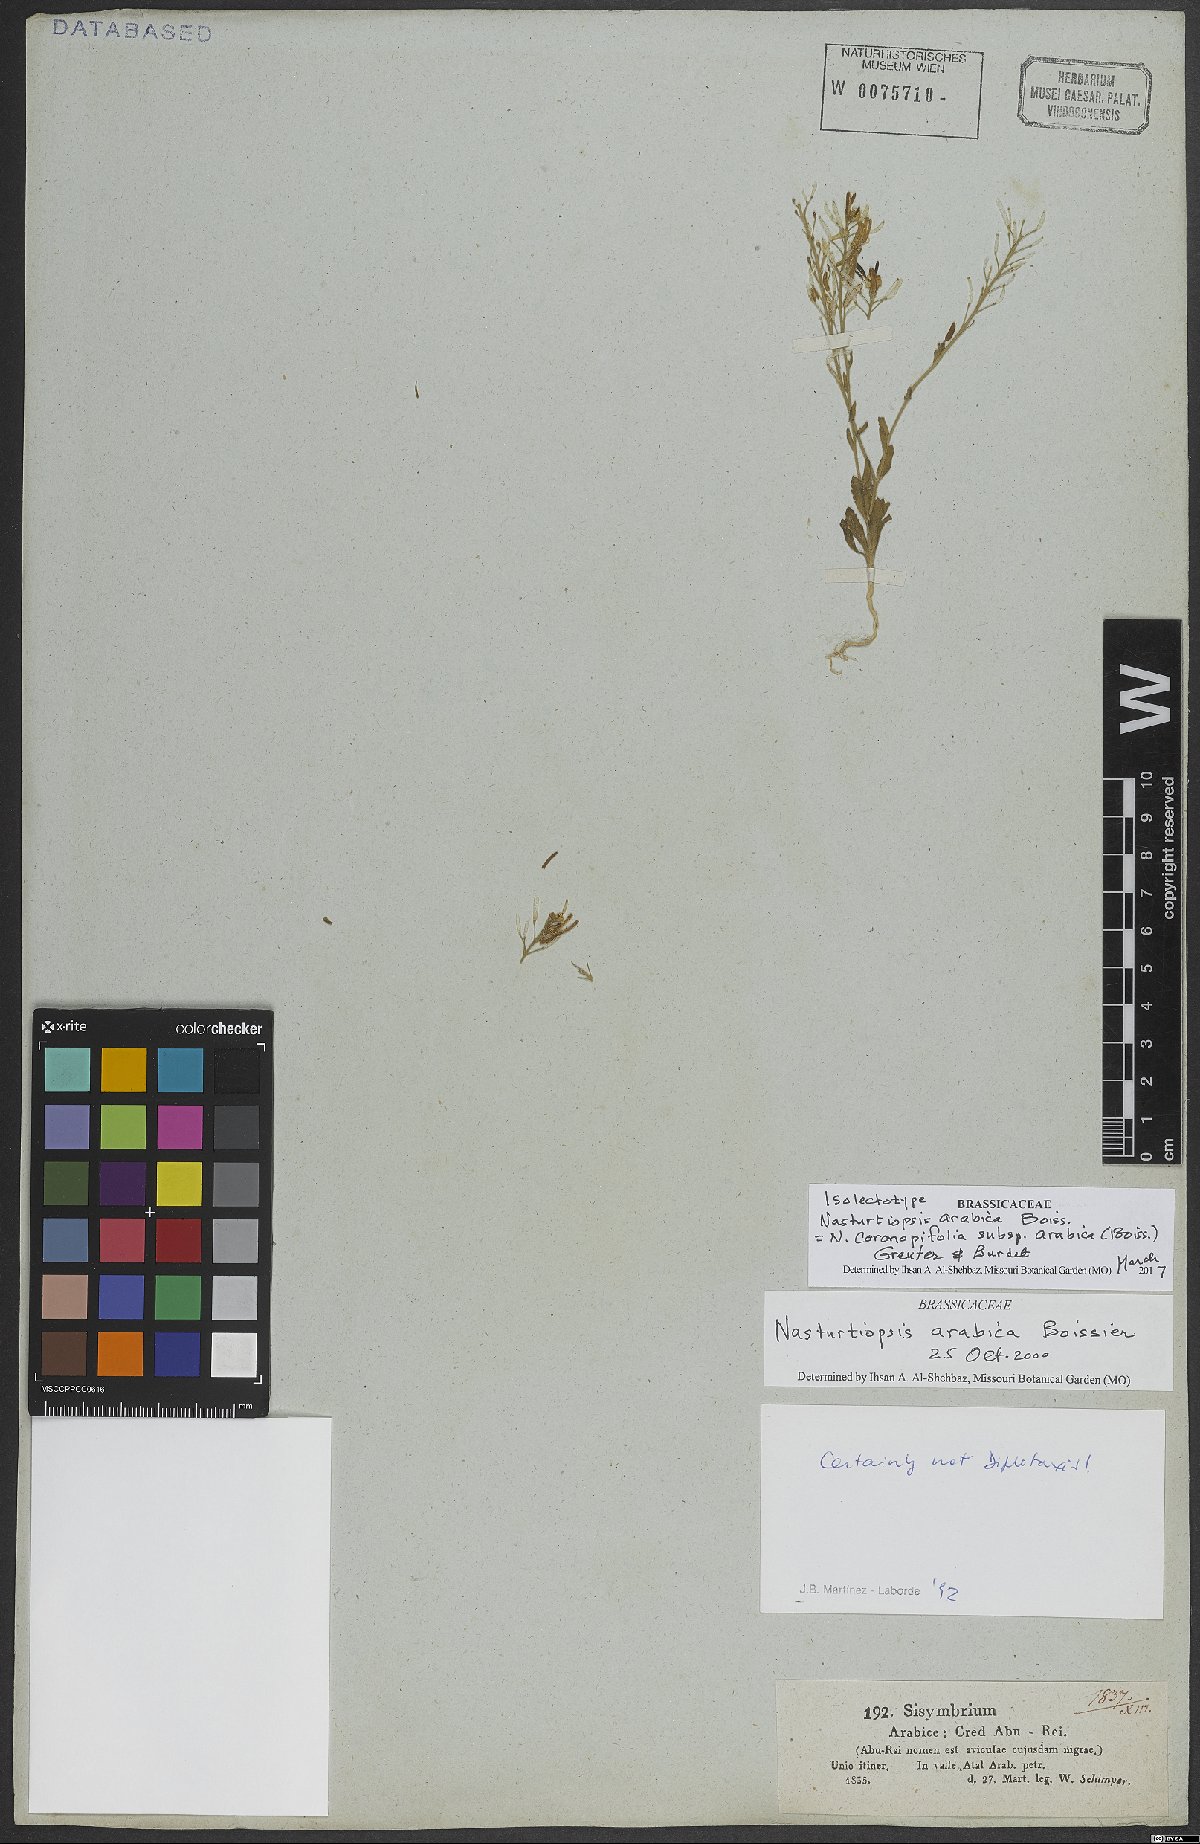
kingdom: Plantae
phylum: Tracheophyta
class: Magnoliopsida
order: Brassicales
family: Brassicaceae
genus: Nasturtiopsis
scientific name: Nasturtiopsis coronopifolia
